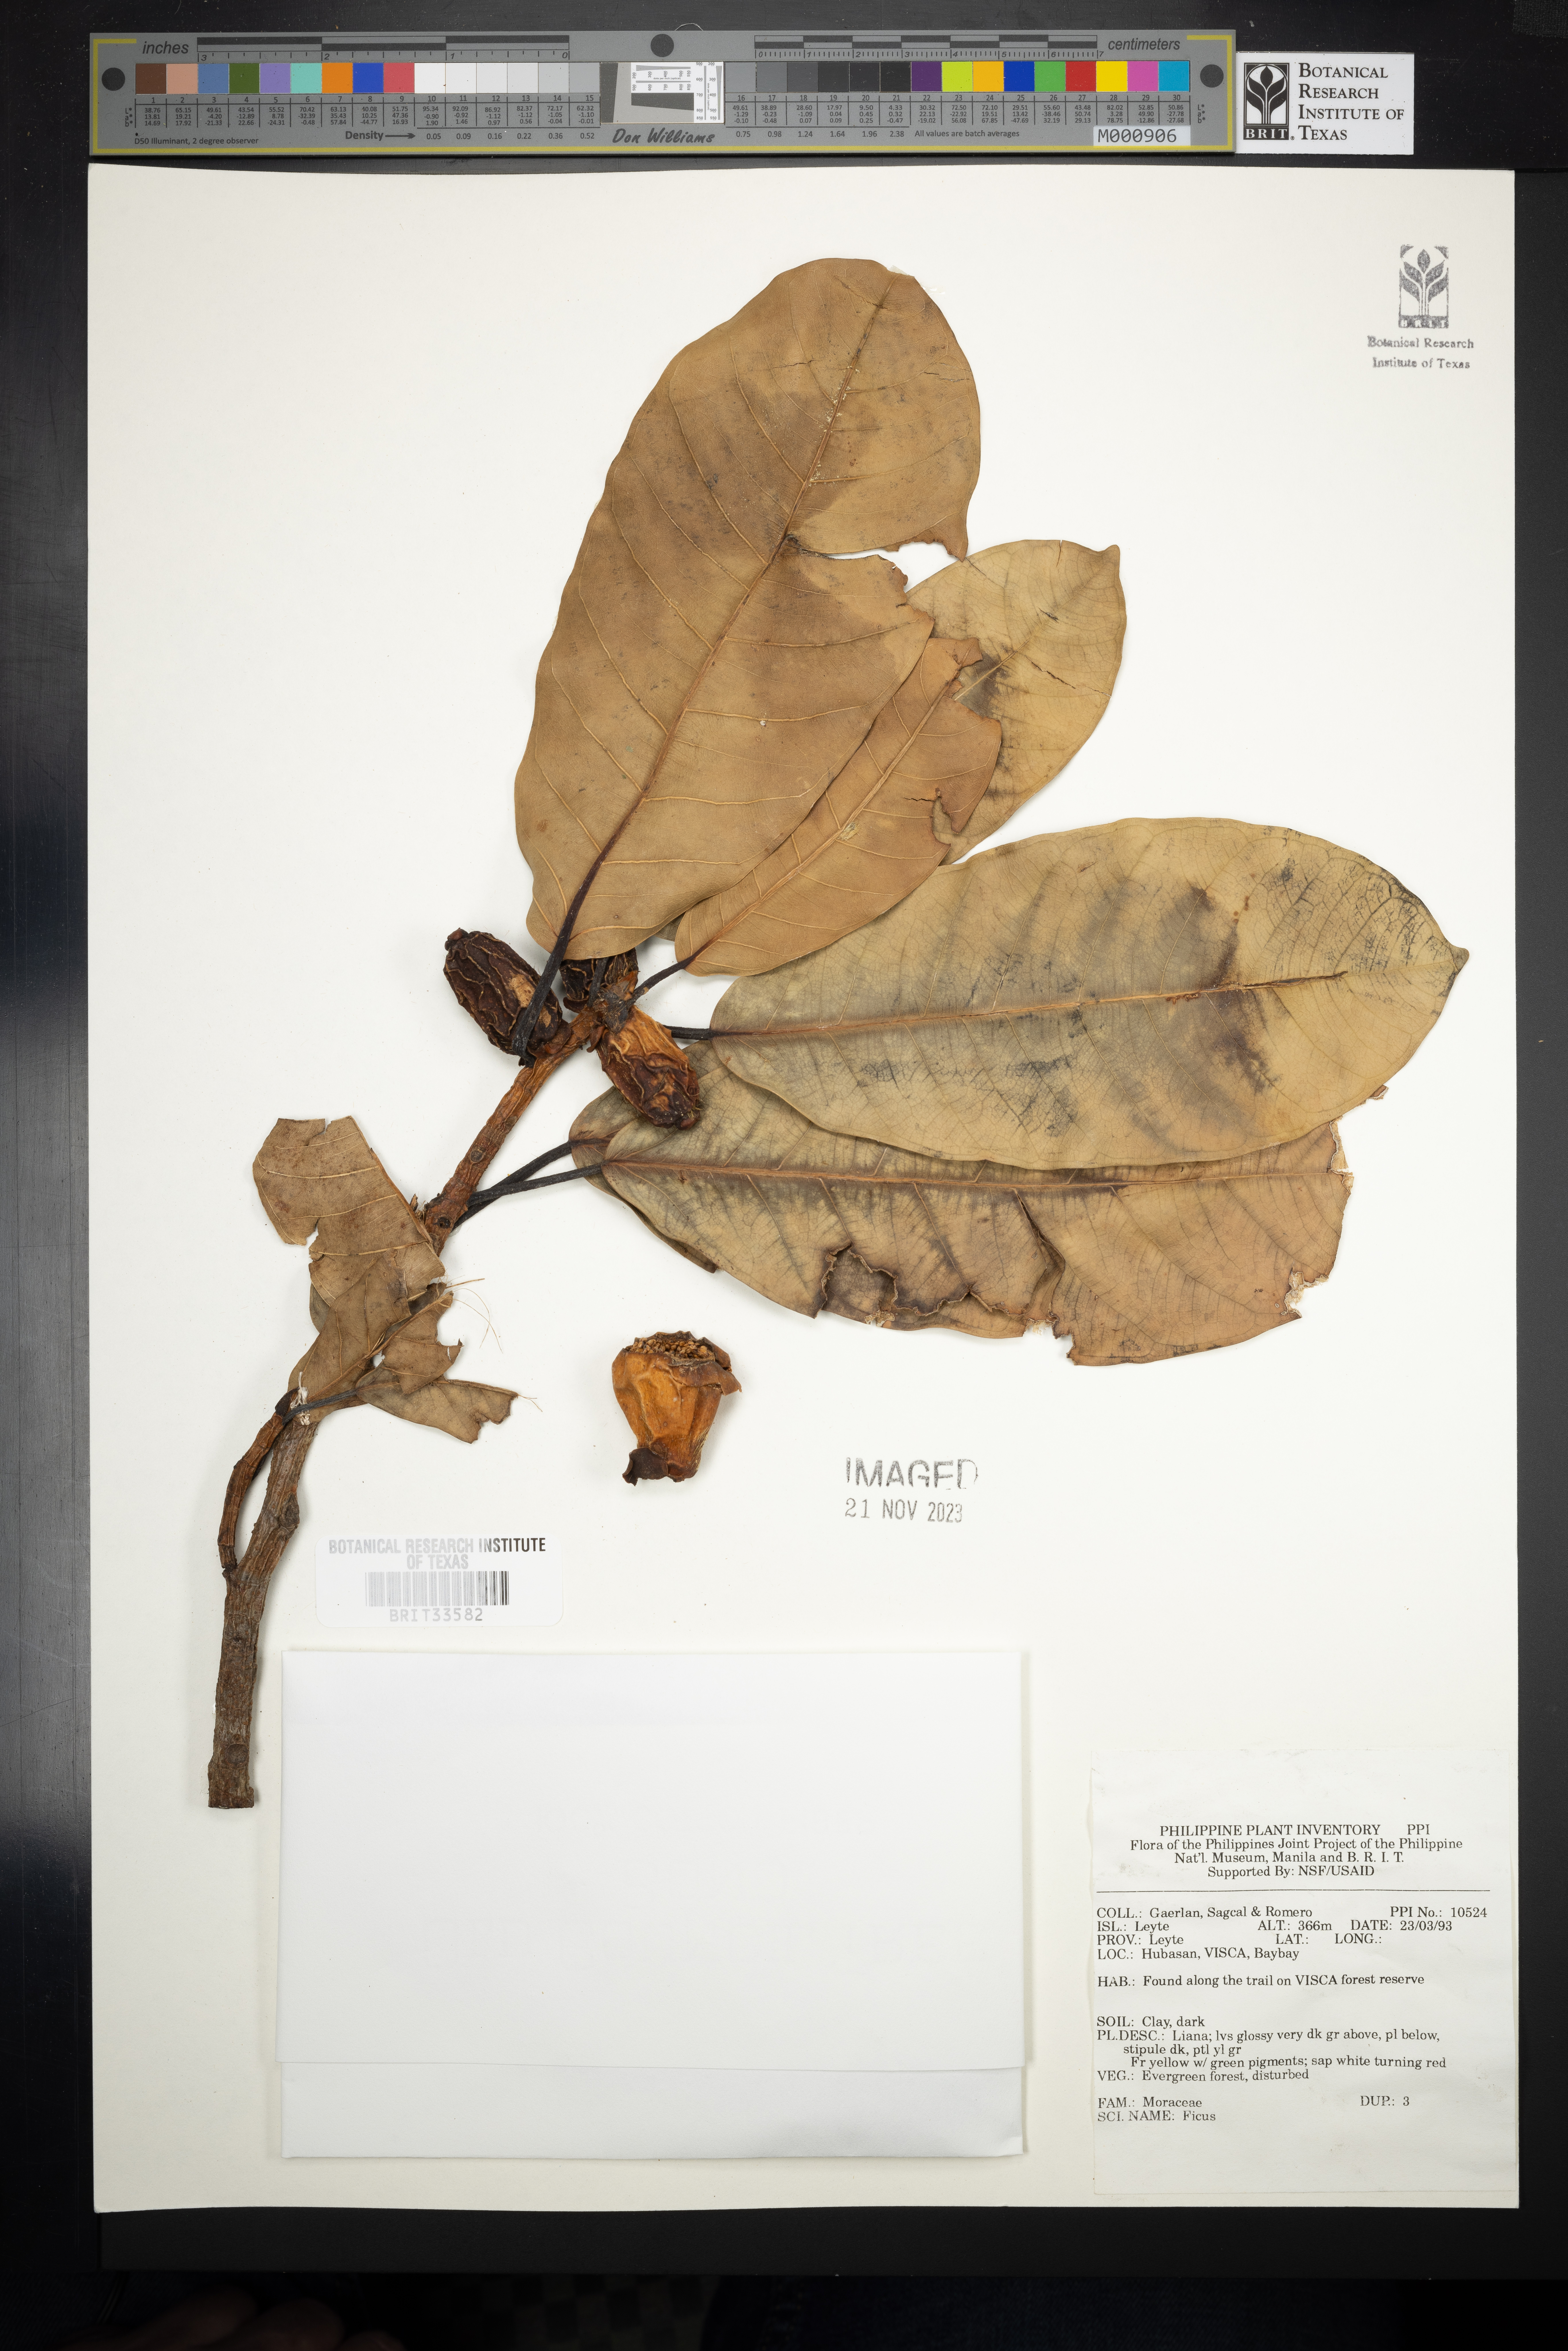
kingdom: Plantae
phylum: Tracheophyta
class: Magnoliopsida
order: Rosales
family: Moraceae
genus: Ficus
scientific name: Ficus
